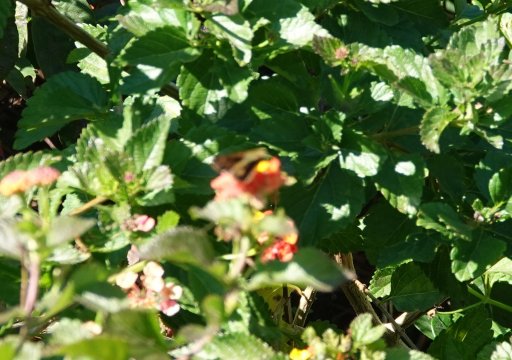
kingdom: Animalia
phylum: Arthropoda
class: Insecta
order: Lepidoptera
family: Hesperiidae
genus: Polites
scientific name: Polites vibex
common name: Whirlabout
